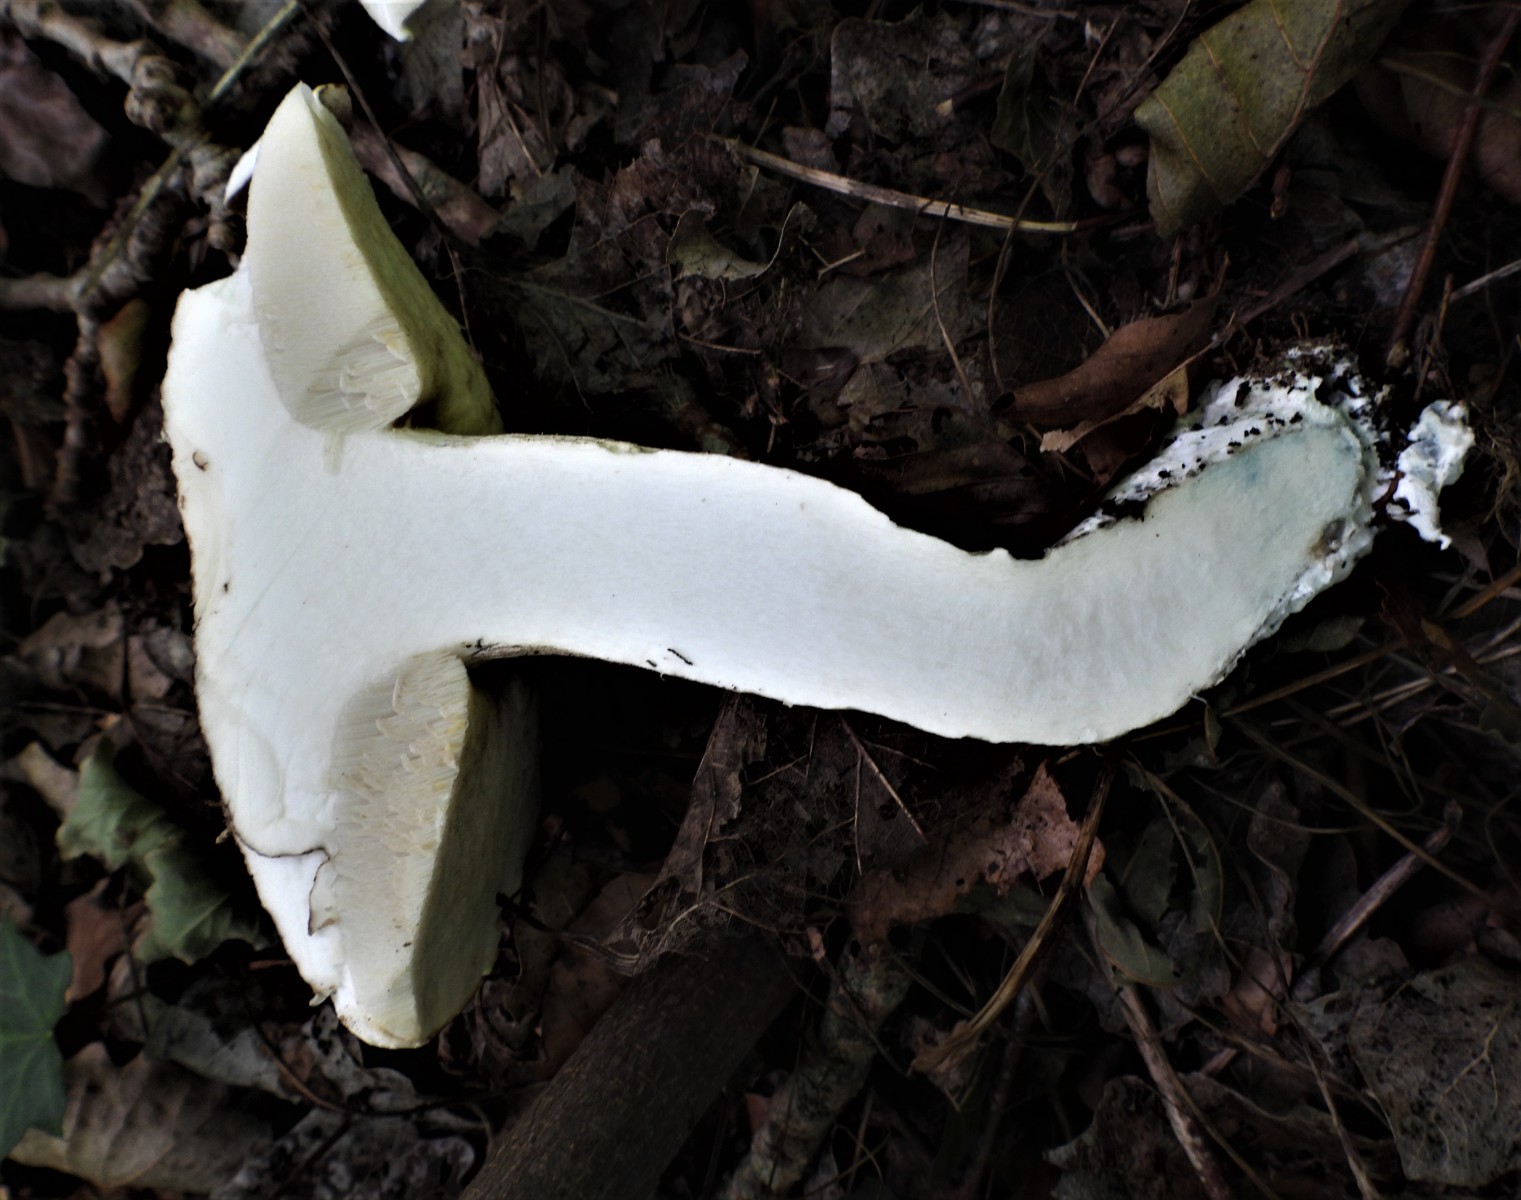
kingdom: Fungi
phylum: Basidiomycota
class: Agaricomycetes
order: Boletales
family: Boletaceae
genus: Leccinum
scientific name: Leccinum duriusculum
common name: poppel-skælrørhat
